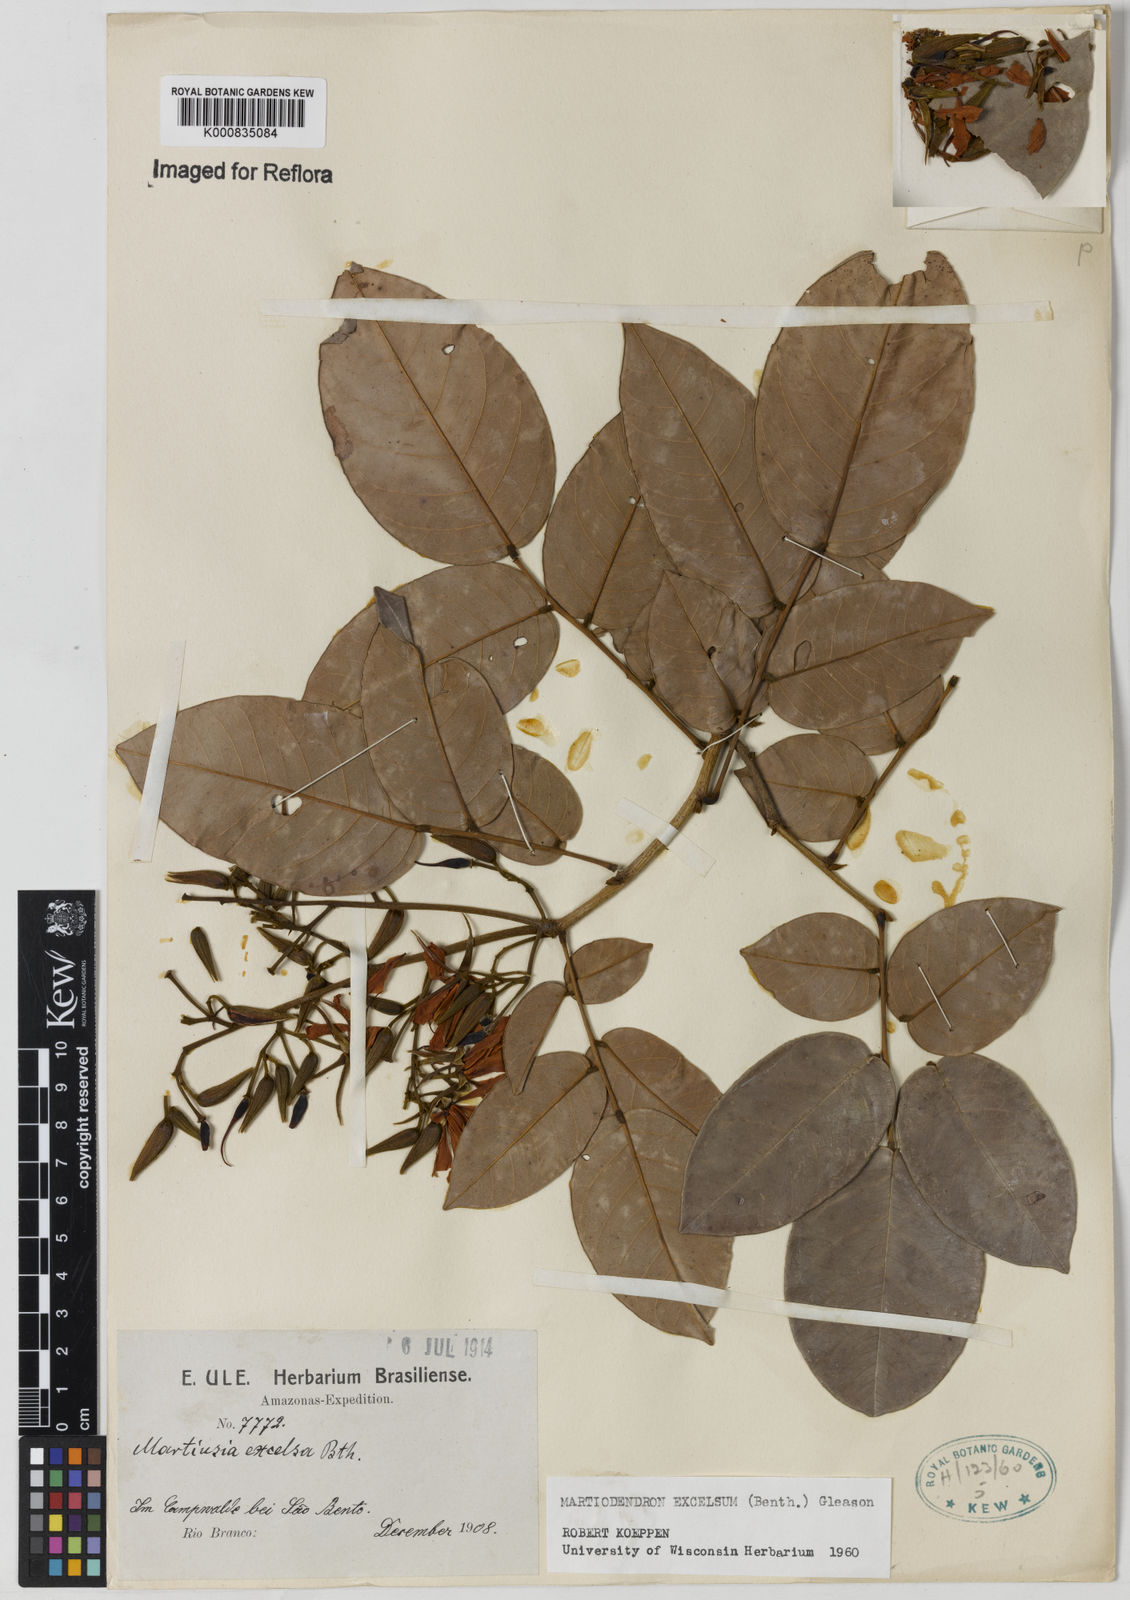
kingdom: Plantae
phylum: Tracheophyta
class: Magnoliopsida
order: Fabales
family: Fabaceae
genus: Martiodendron
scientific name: Martiodendron excelsum
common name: Tatabuballi
